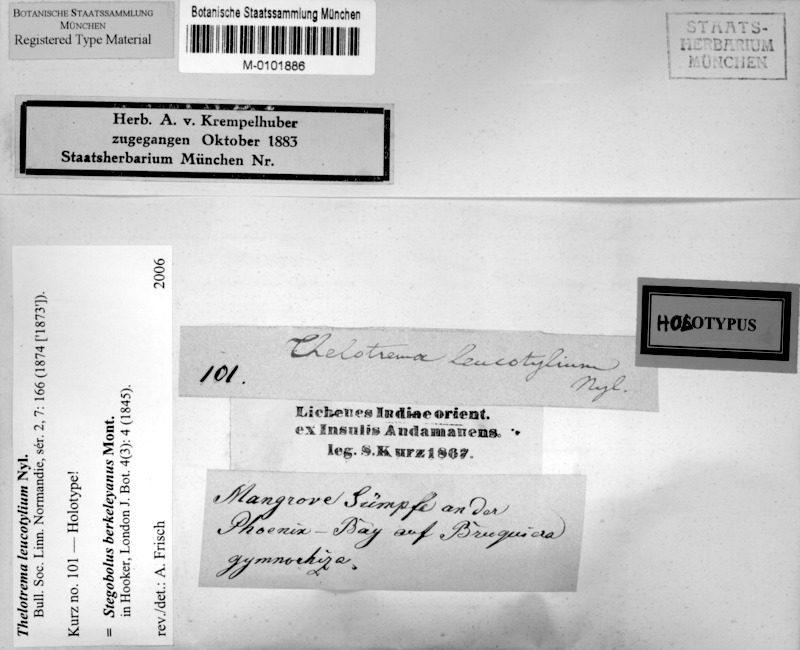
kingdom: Fungi
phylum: Ascomycota
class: Lecanoromycetes
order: Ostropales
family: Graphidaceae
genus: Thelotrema
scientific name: Thelotrema berkeleyanum
